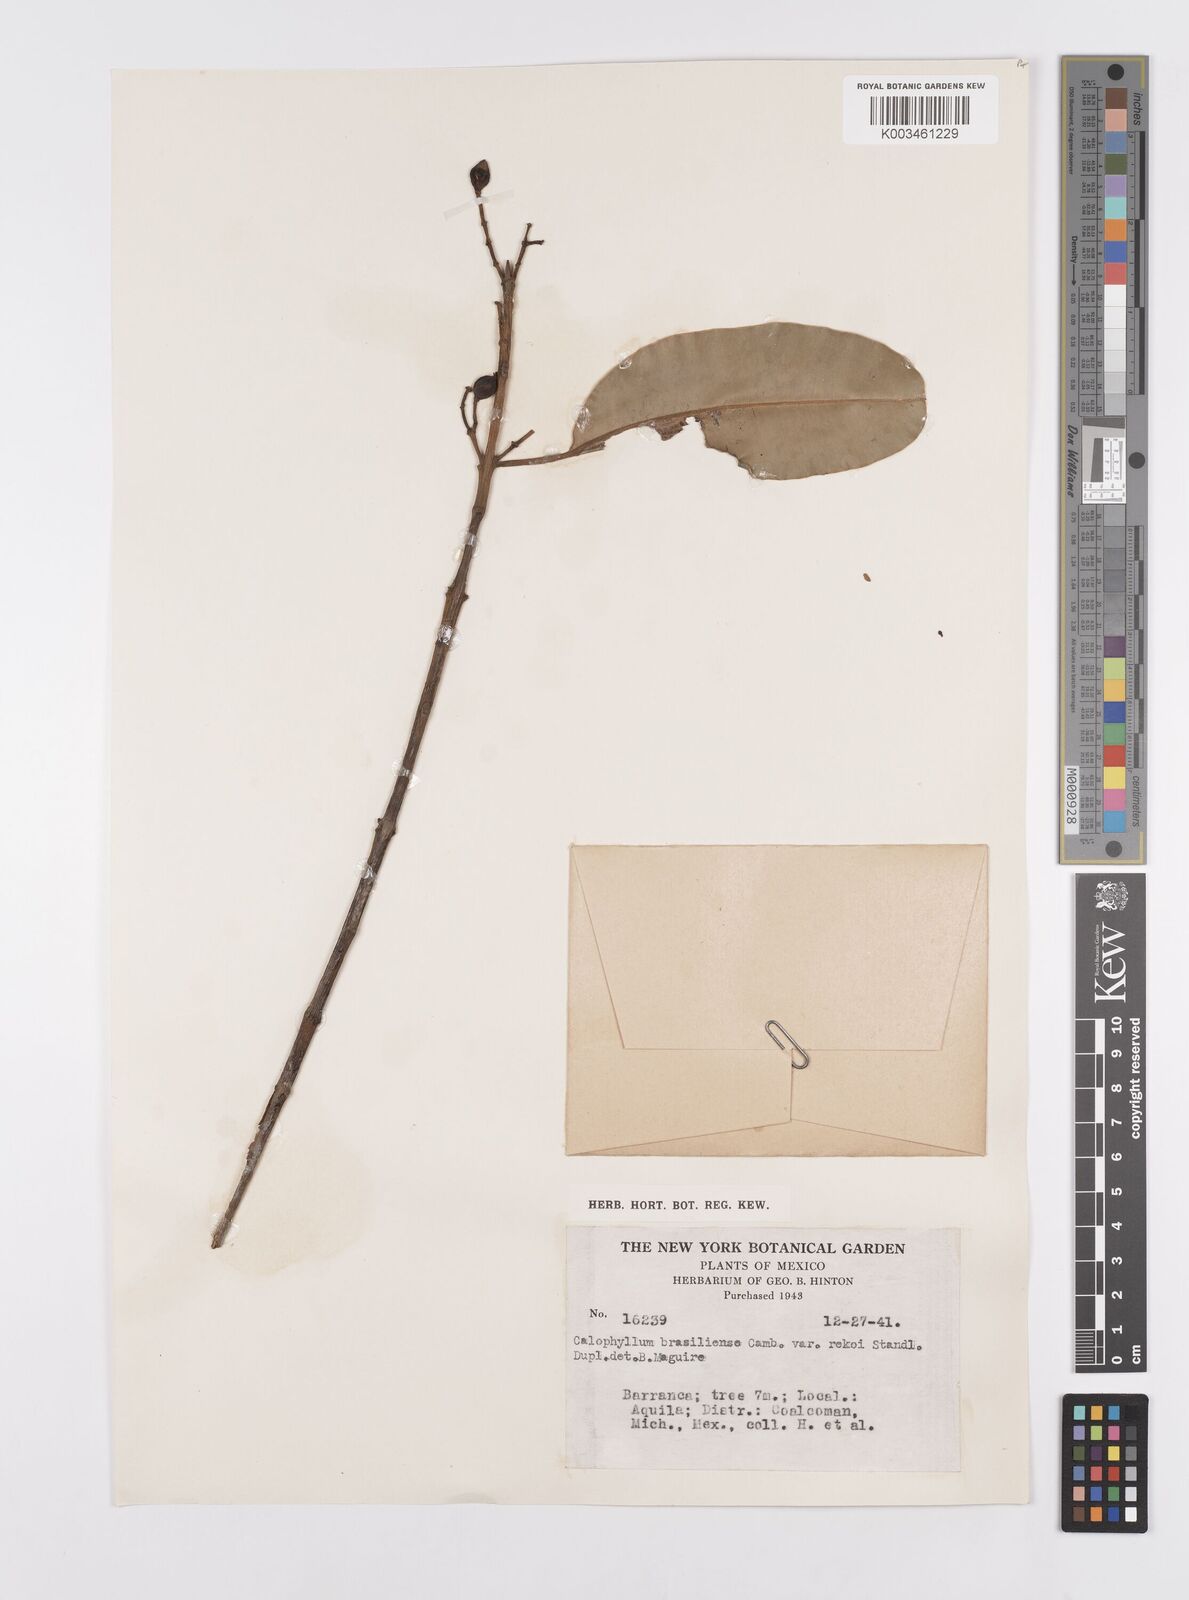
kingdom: Plantae
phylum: Tracheophyta
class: Magnoliopsida
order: Malpighiales
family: Calophyllaceae
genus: Calophyllum
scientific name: Calophyllum brasiliense
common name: Santa maria
